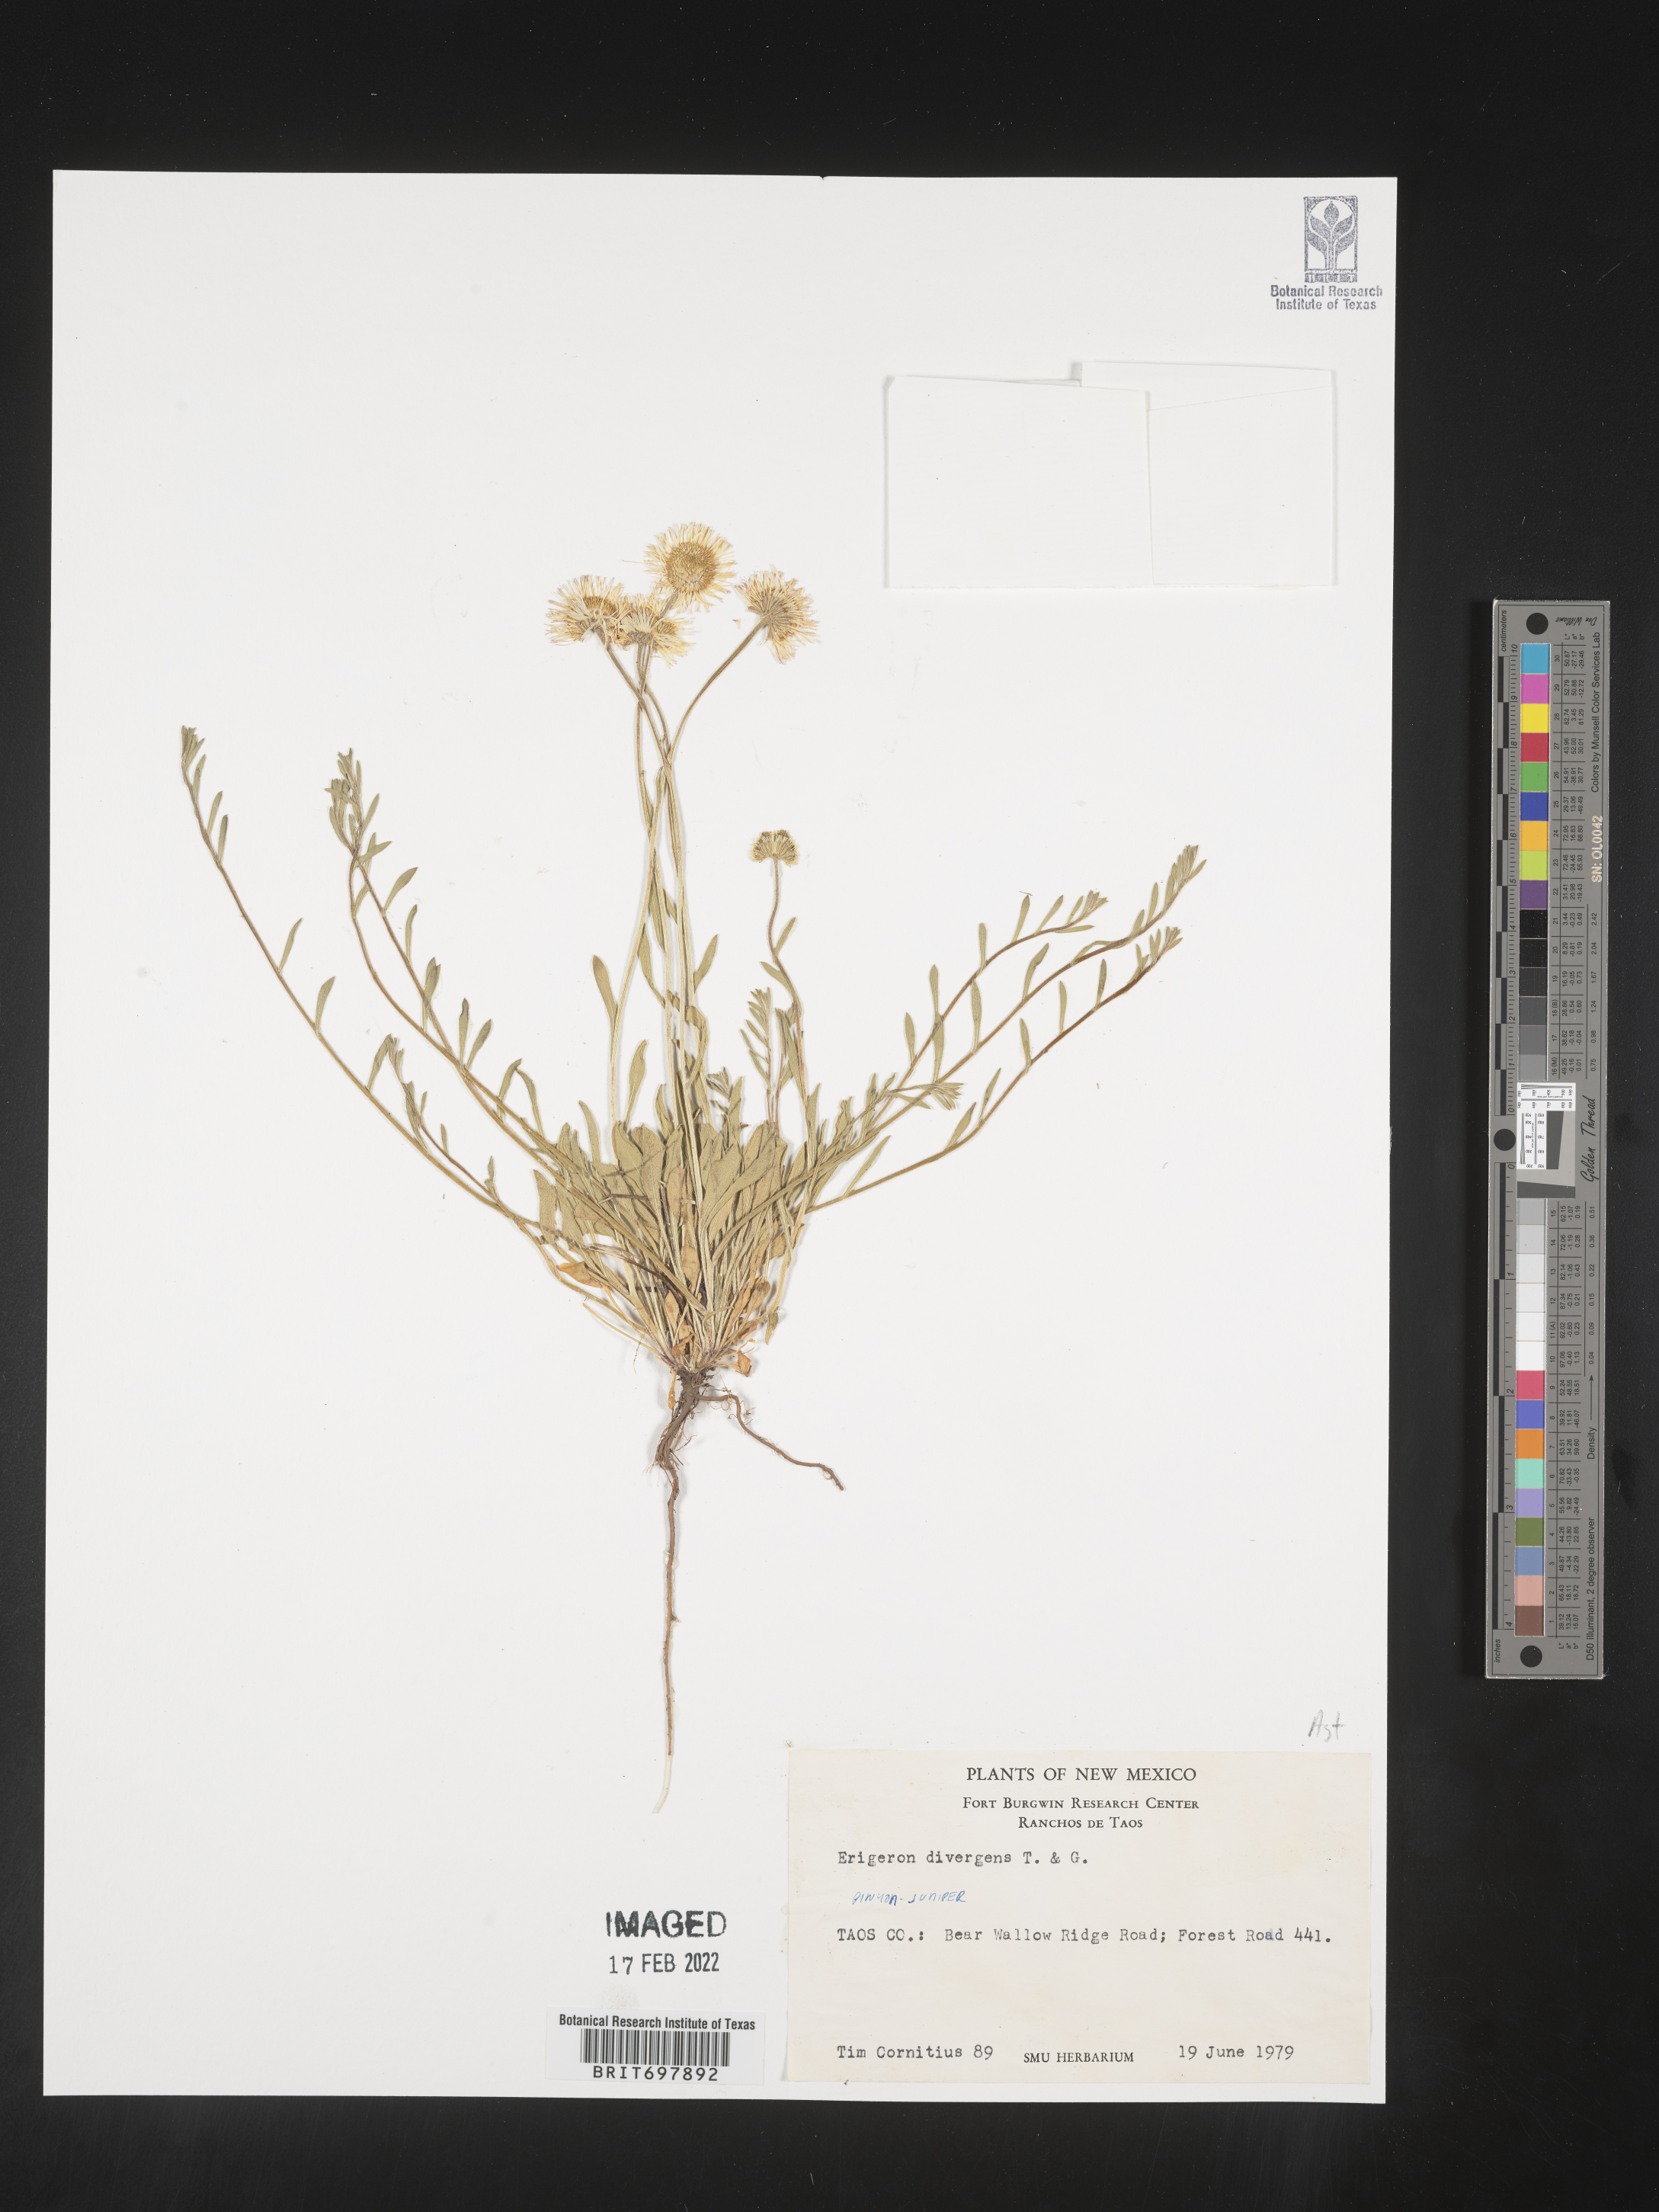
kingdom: Plantae
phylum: Tracheophyta
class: Magnoliopsida
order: Asterales
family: Asteraceae
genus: Erigeron
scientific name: Erigeron flagellaris
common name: Running fleabane
